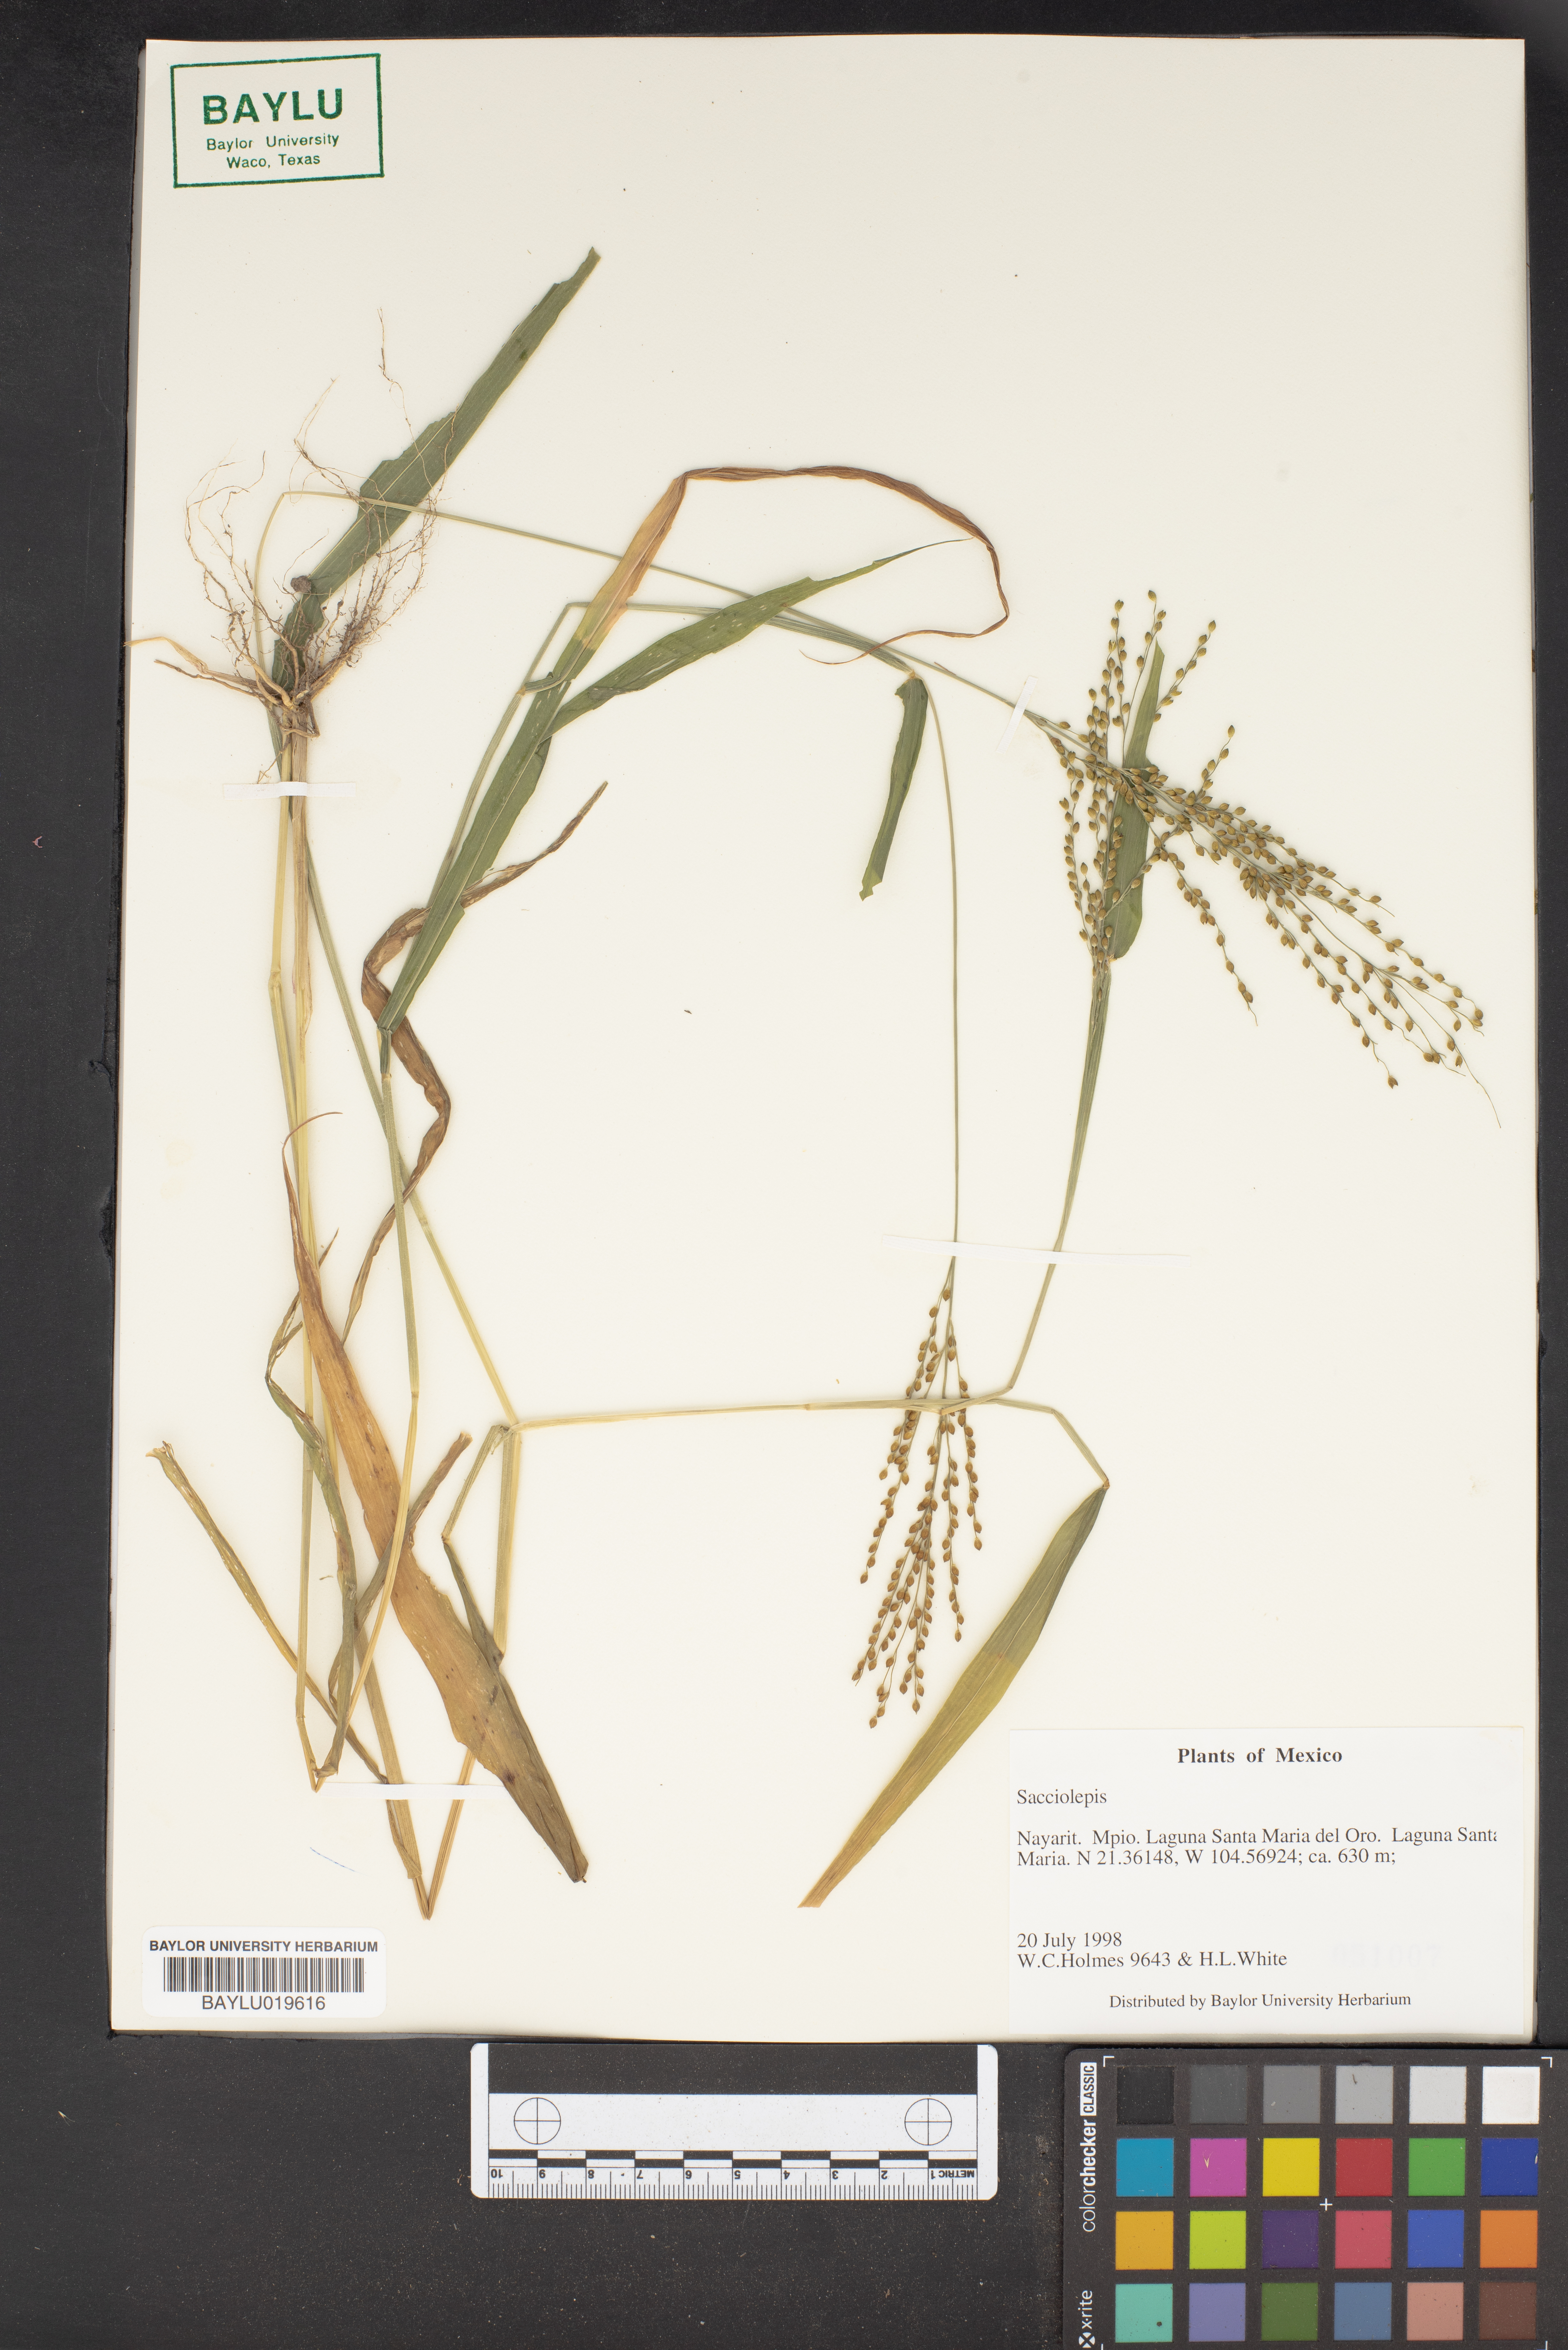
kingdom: Plantae
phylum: Tracheophyta
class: Liliopsida
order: Poales
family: Poaceae
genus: Sacciolepis
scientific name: Sacciolepis
